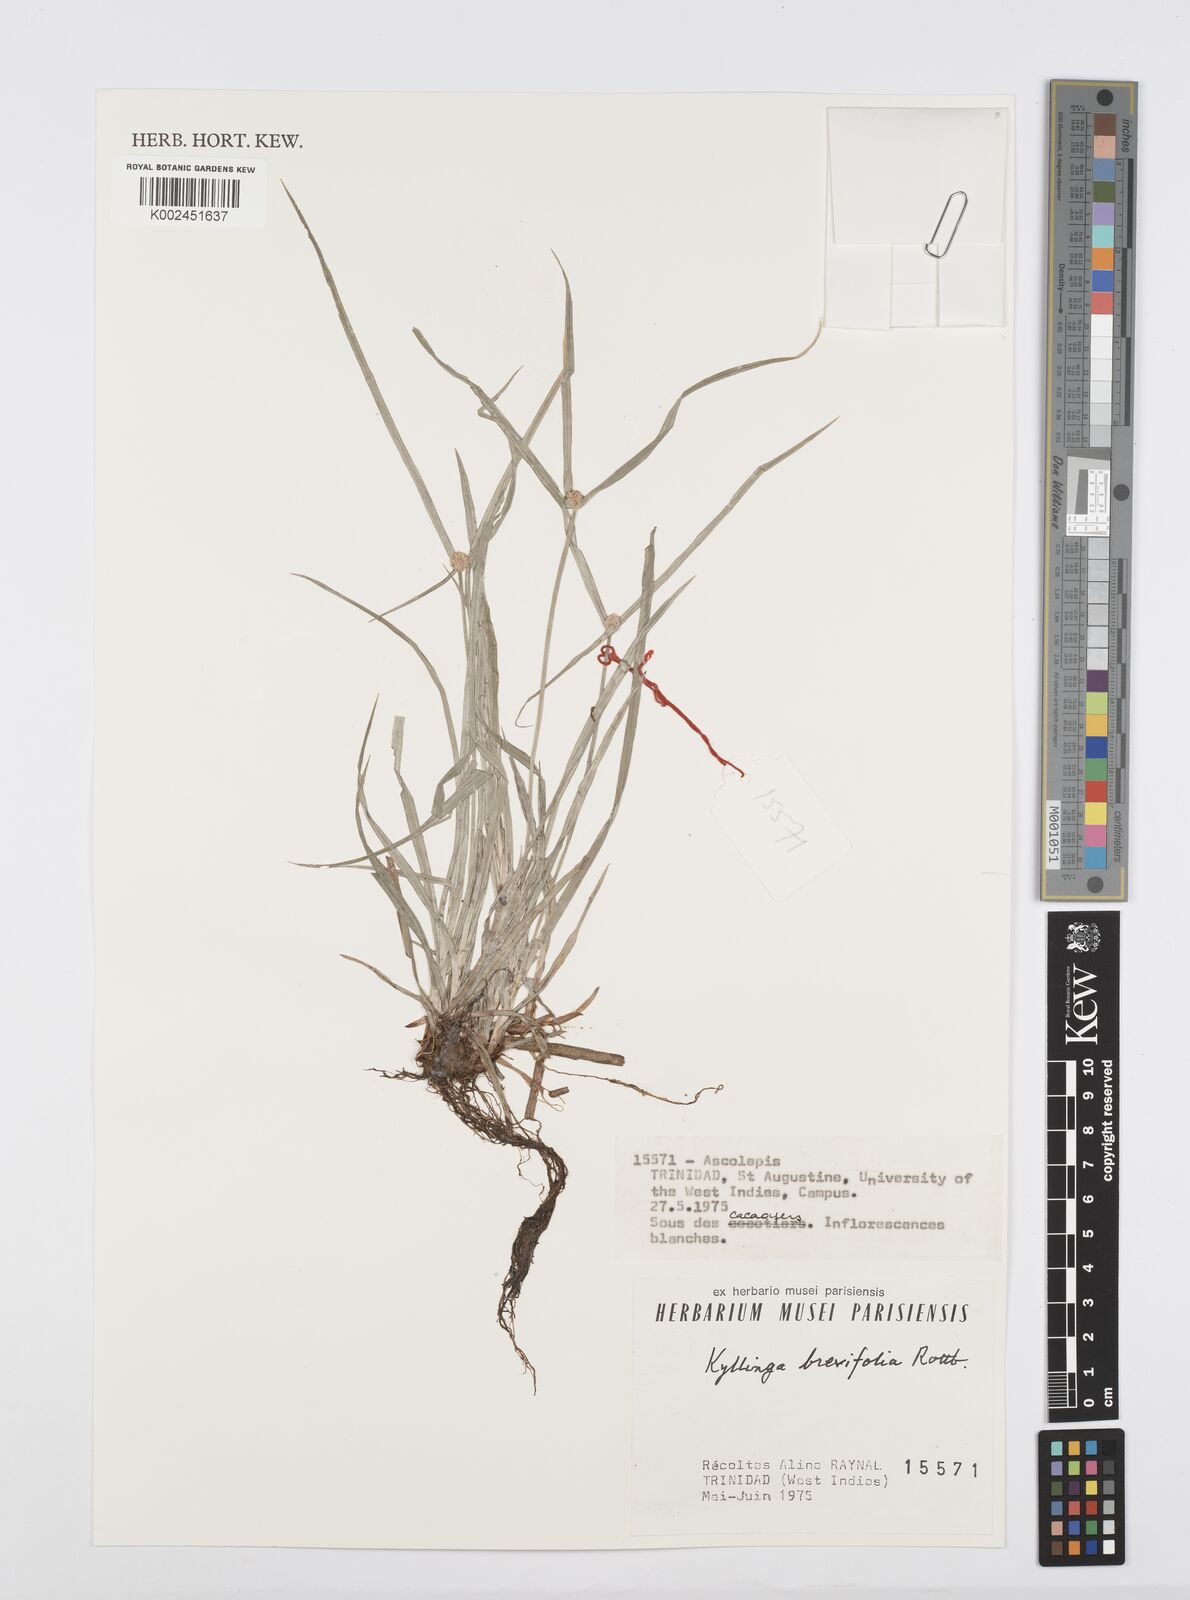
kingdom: Plantae
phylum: Tracheophyta
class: Liliopsida
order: Poales
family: Cyperaceae
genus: Cyperus
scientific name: Cyperus brevifolius
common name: Globe kyllinga
